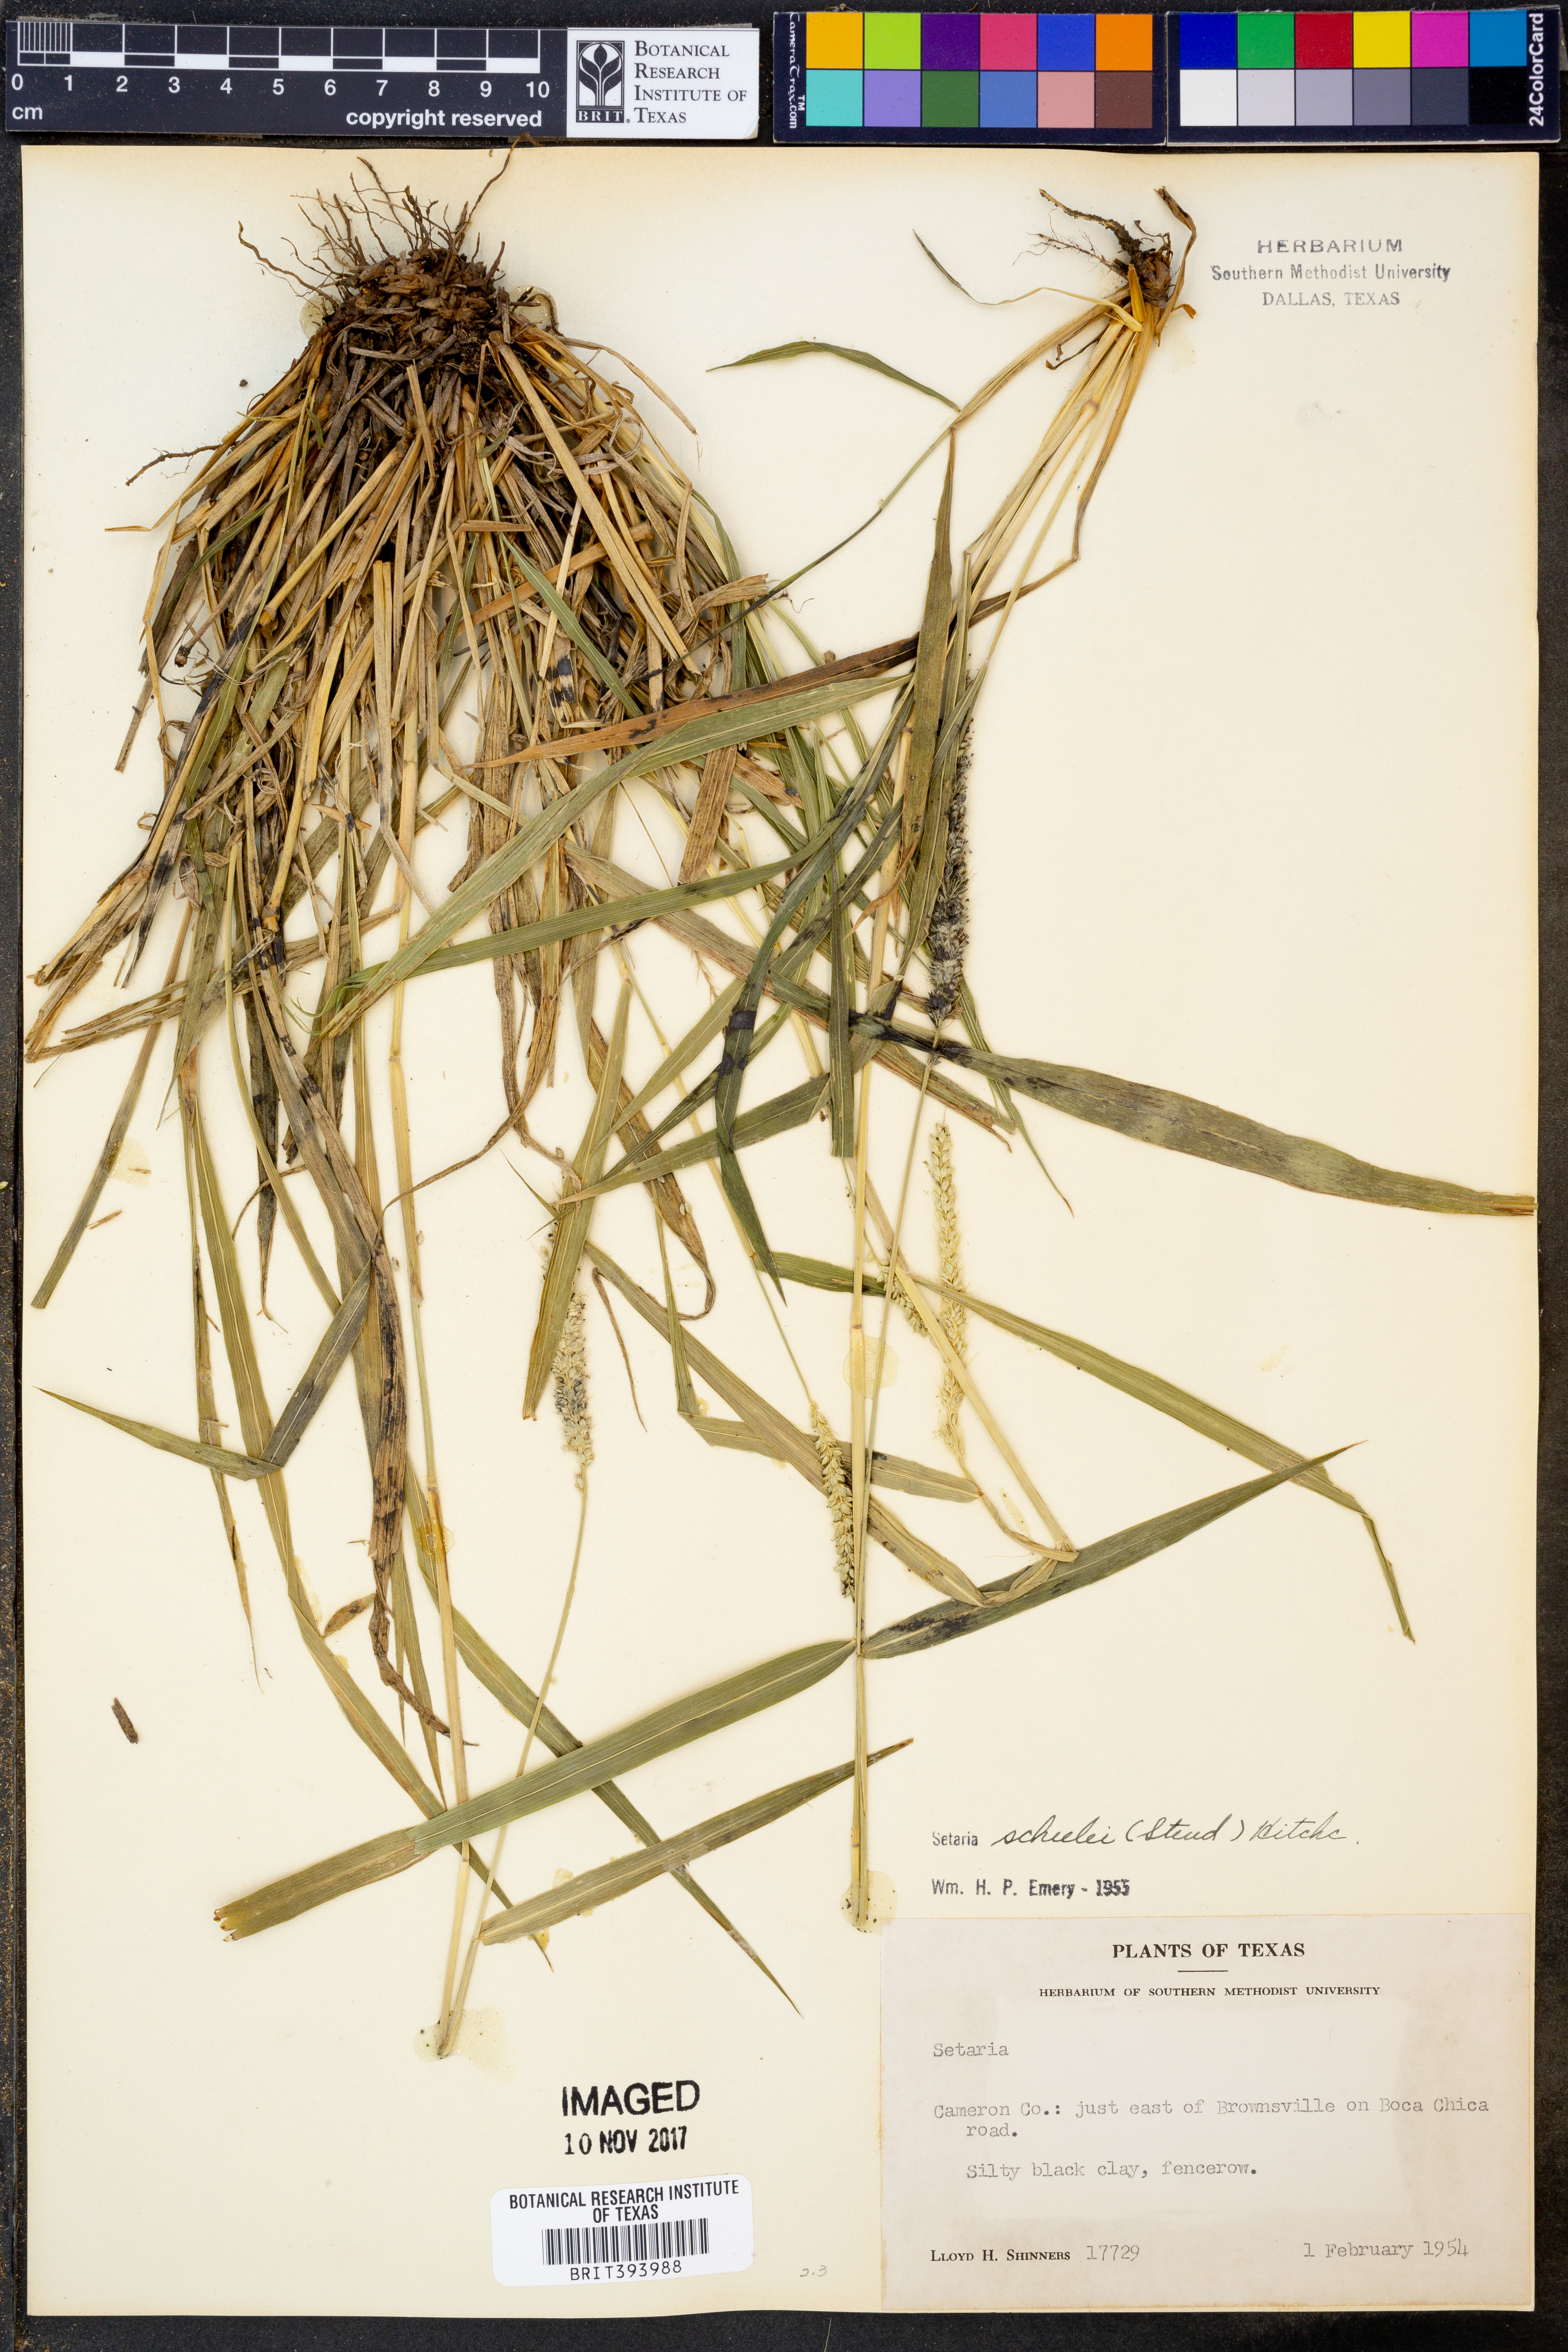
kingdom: Plantae
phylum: Tracheophyta
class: Liliopsida
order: Poales
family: Poaceae
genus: Setaria
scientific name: Setaria scheelei
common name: Southwestern bristle grass
